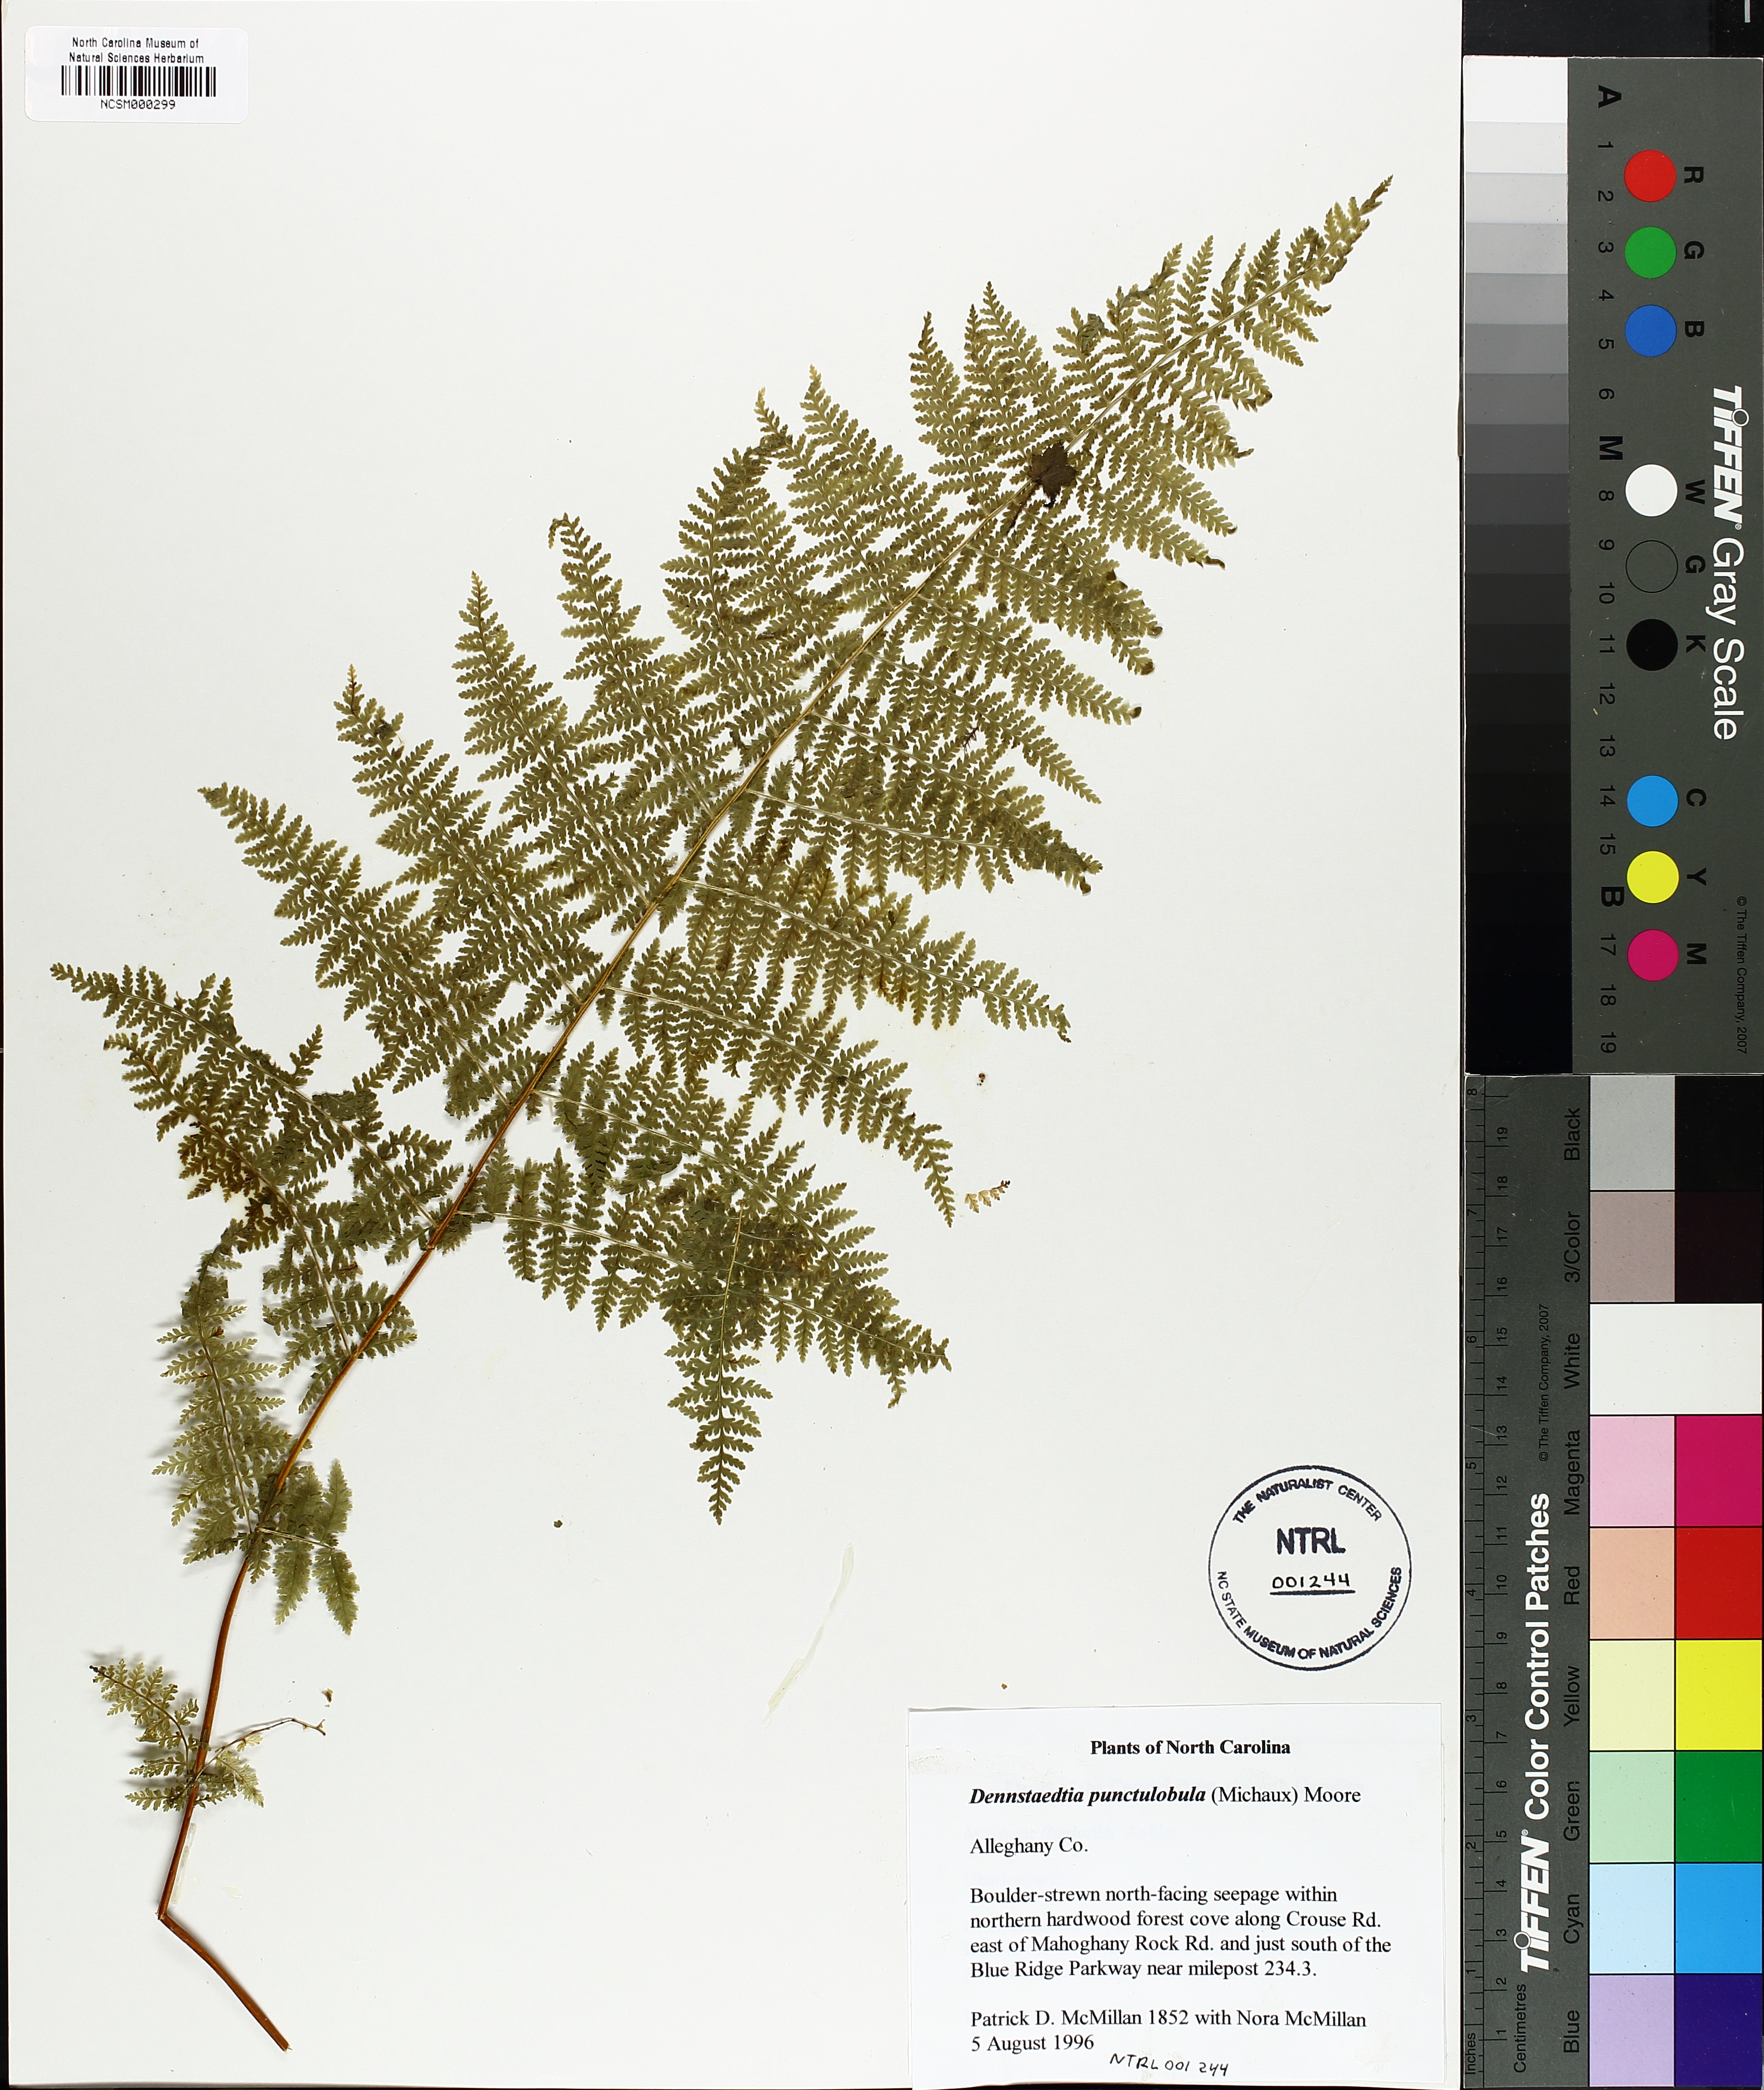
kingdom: Plantae
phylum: Tracheophyta
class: Polypodiopsida
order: Polypodiales
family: Dennstaedtiaceae
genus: Sitobolium
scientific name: Sitobolium punctilobum
